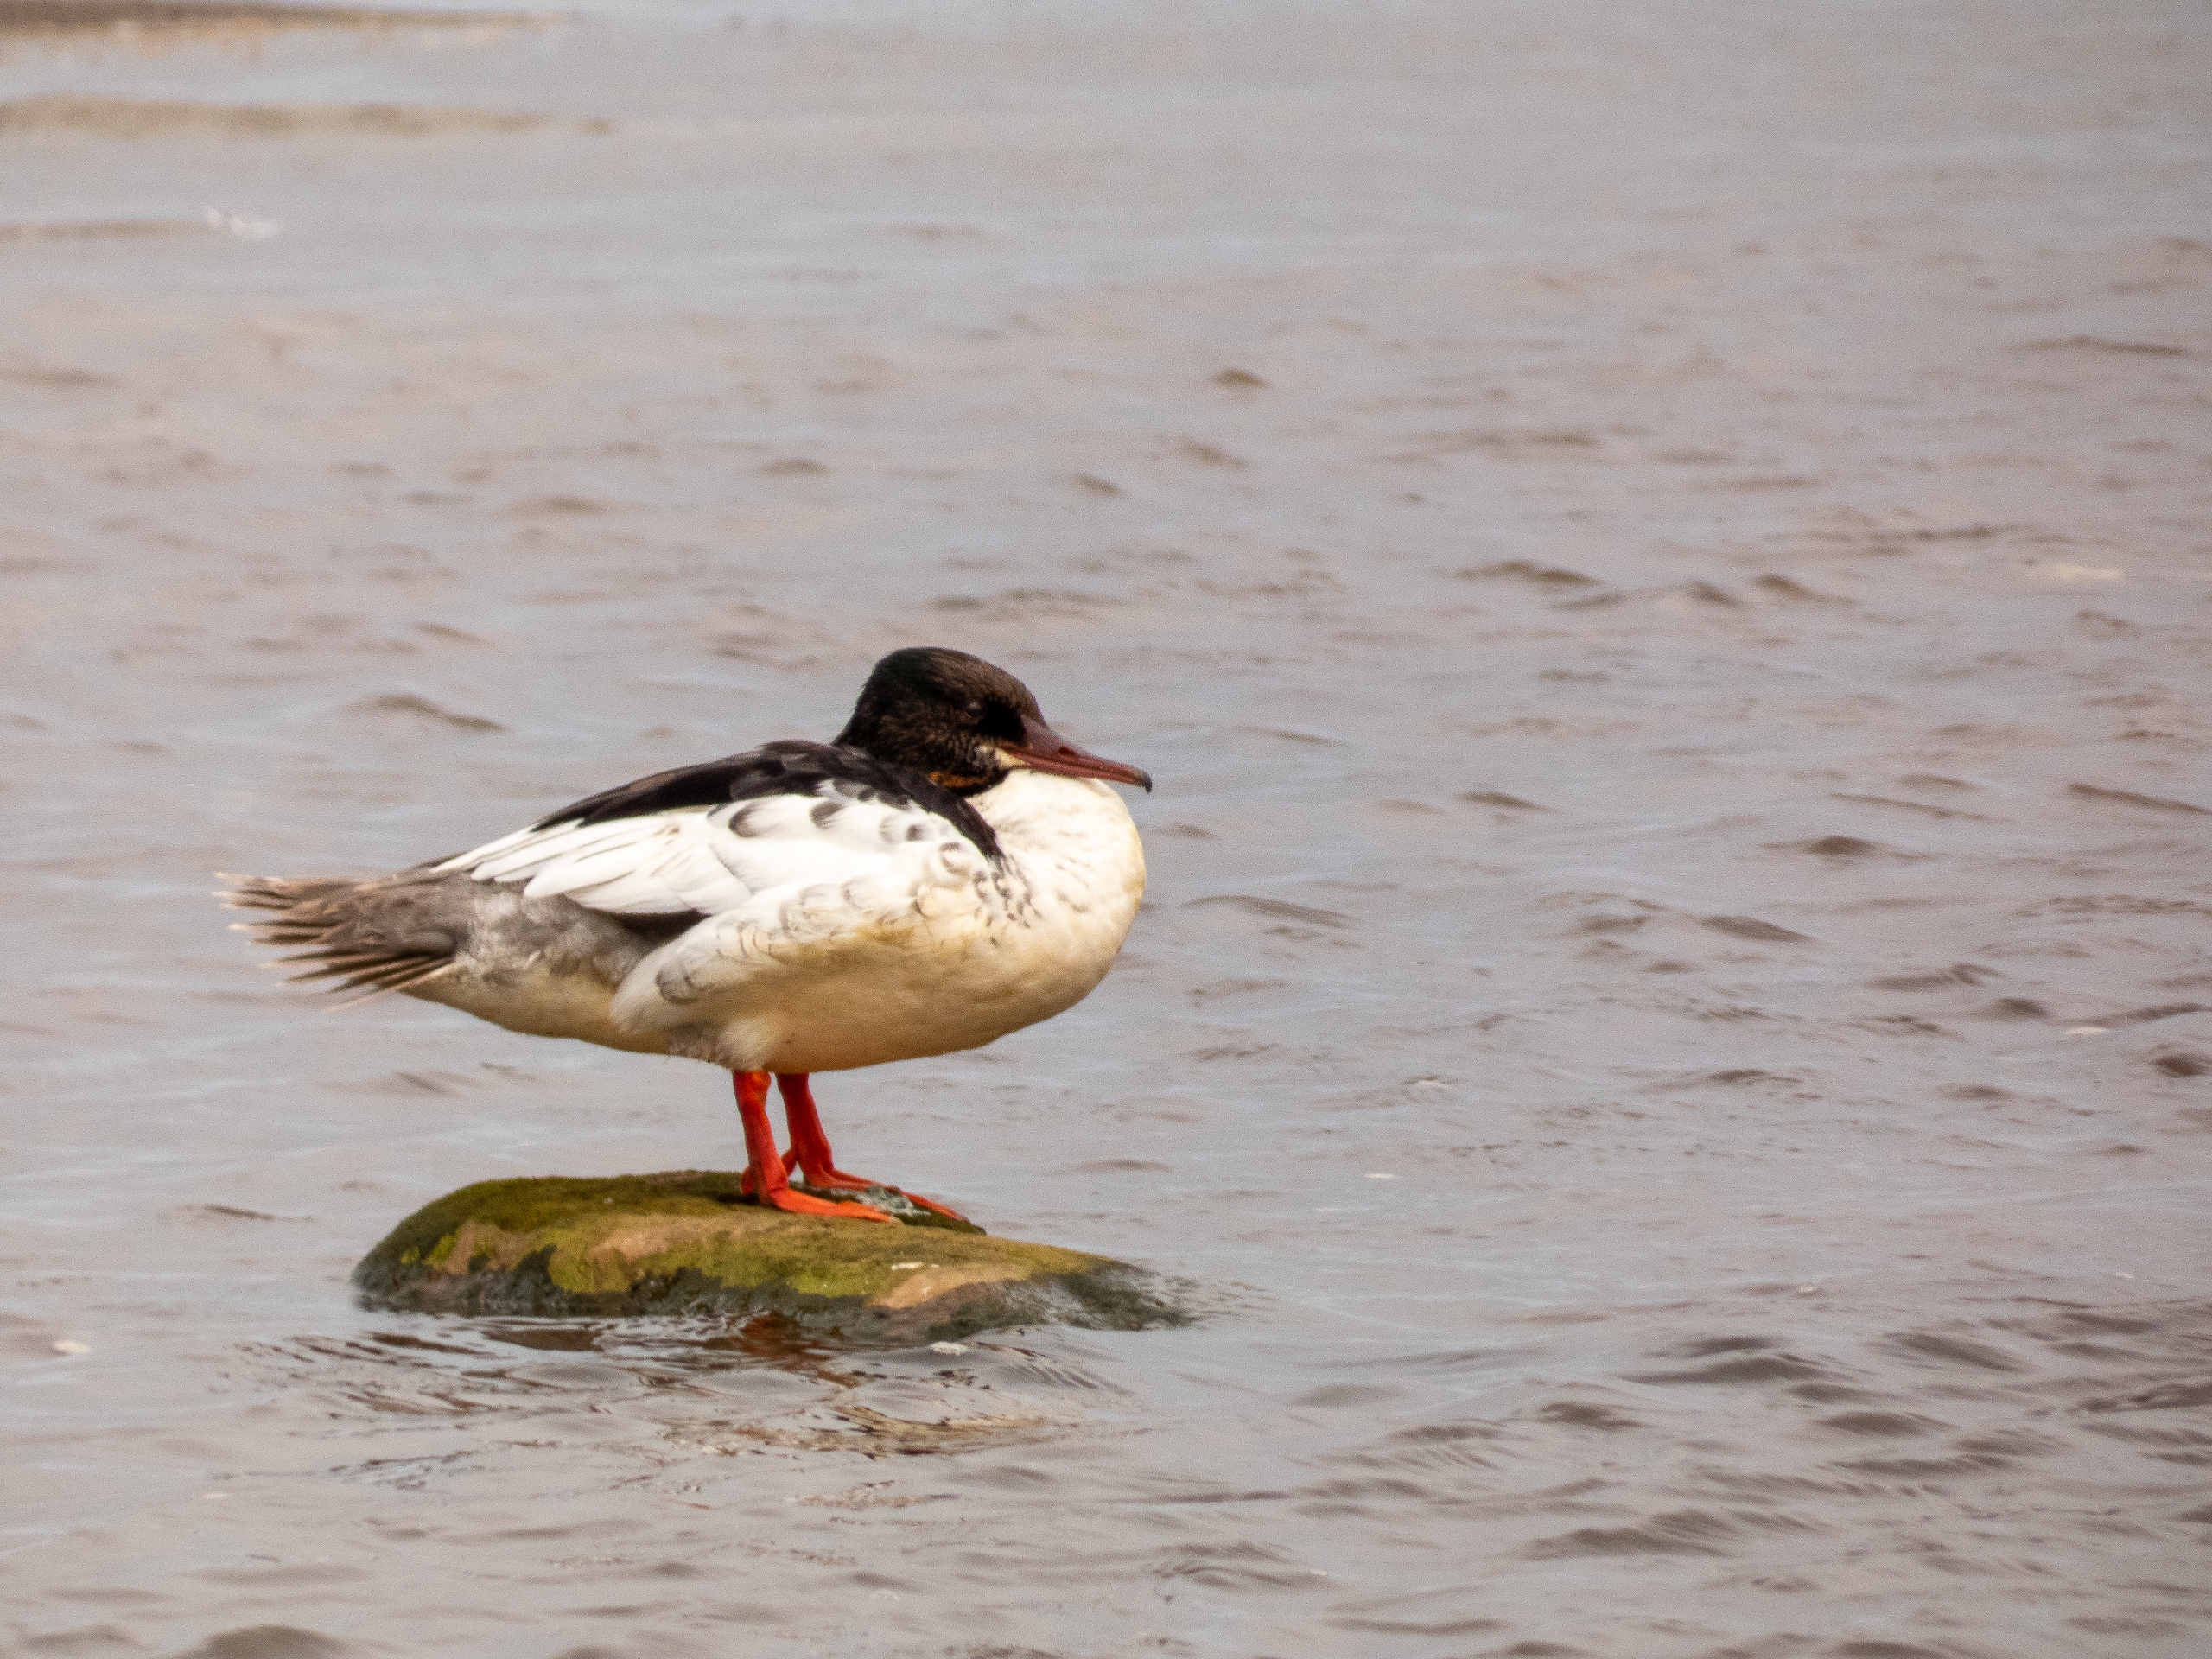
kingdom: Animalia
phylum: Chordata
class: Aves
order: Anseriformes
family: Anatidae
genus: Mergus
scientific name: Mergus merganser
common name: Stor skallesluger
